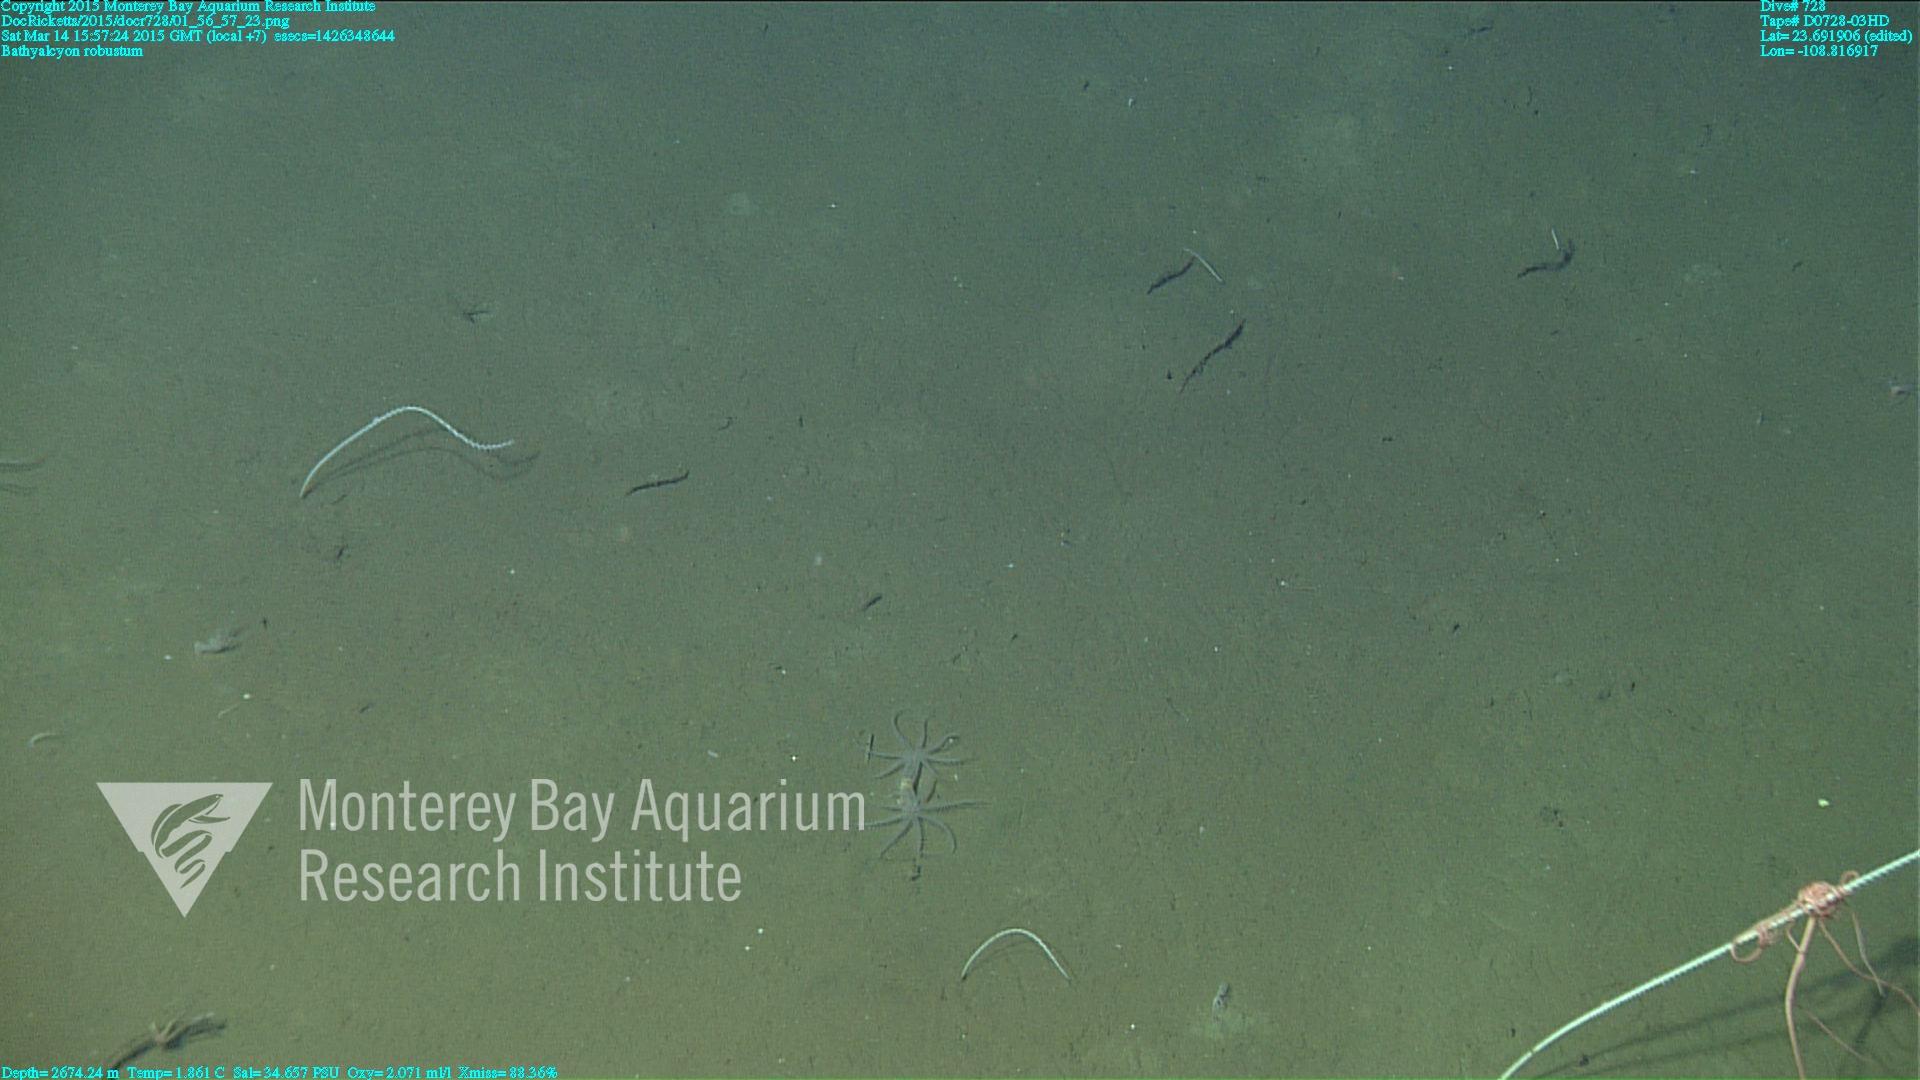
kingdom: Animalia
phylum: Cnidaria
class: Anthozoa
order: Scleralcyonacea
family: Coralliidae
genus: Bathyalcyon
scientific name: Bathyalcyon robustum
